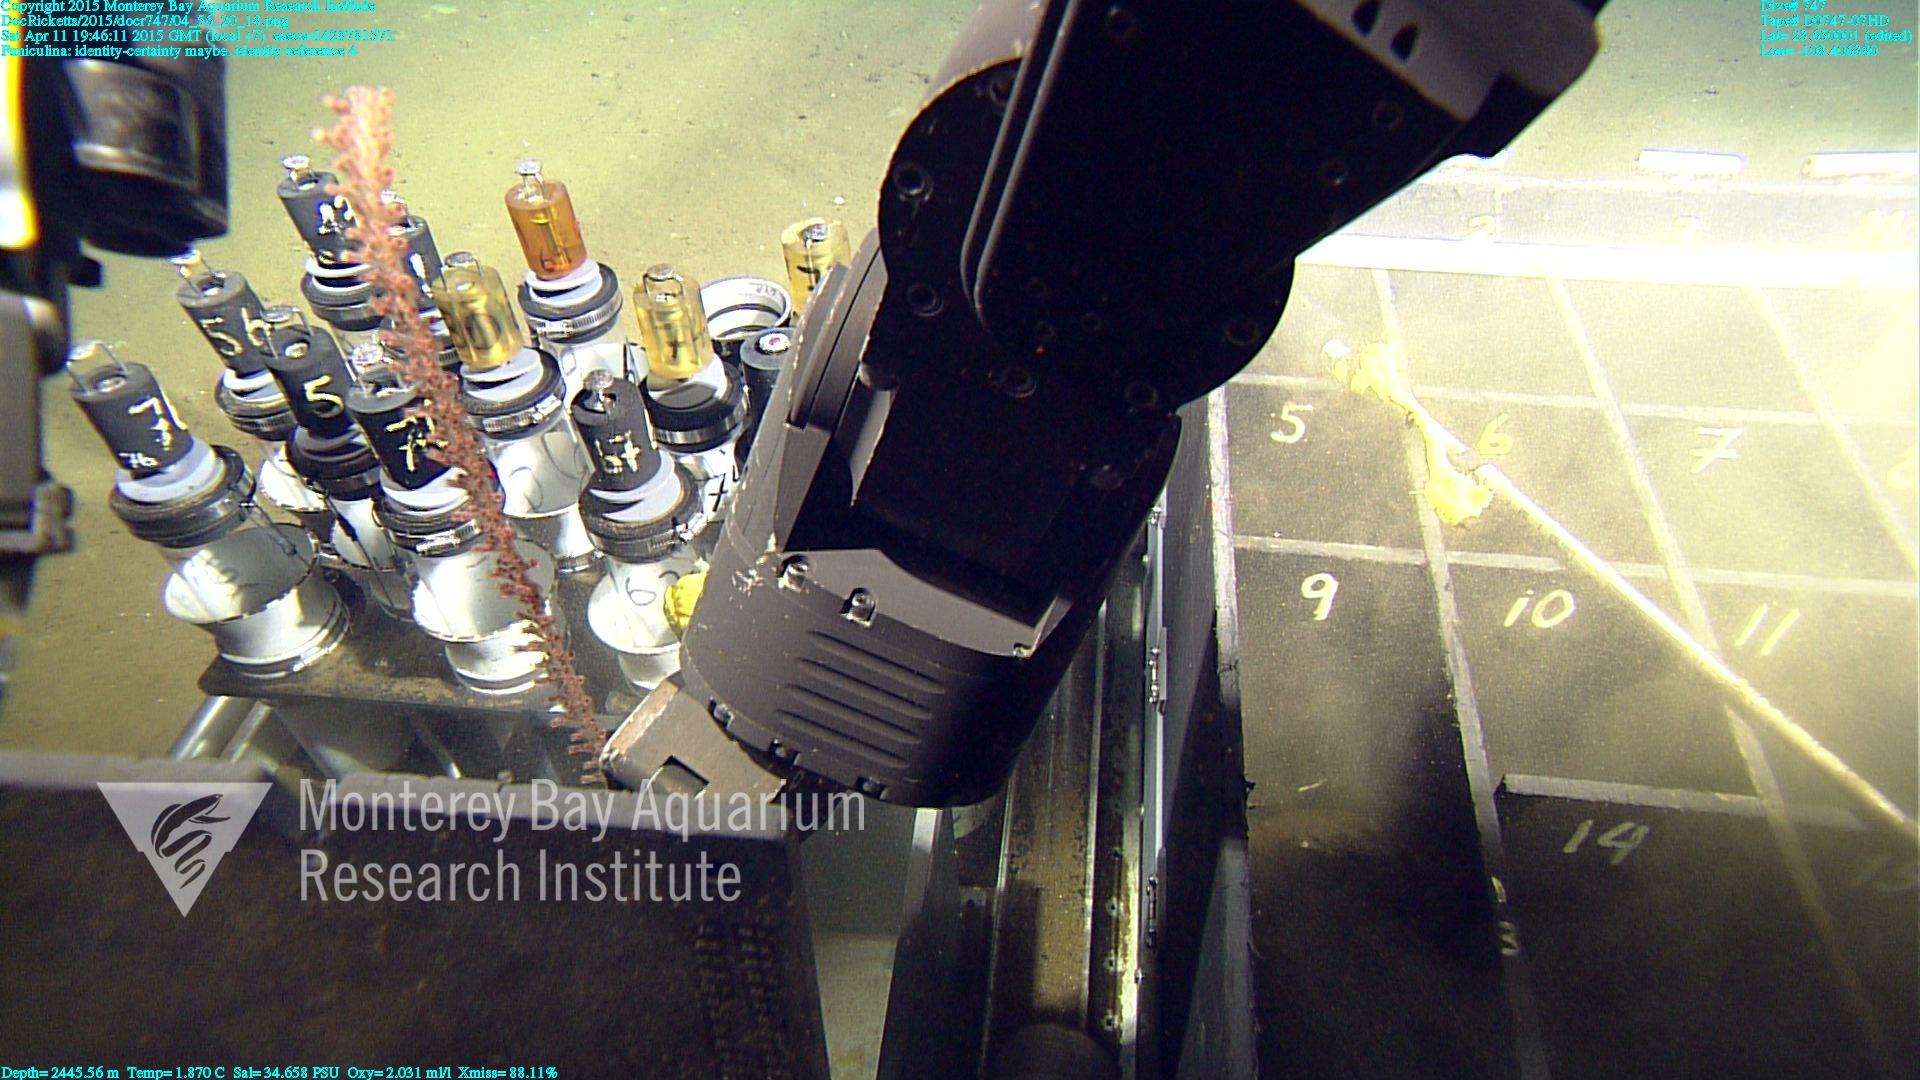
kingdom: Animalia
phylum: Cnidaria
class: Anthozoa
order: Scleralcyonacea
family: Funiculinidae
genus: Funiculina
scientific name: Funiculina
